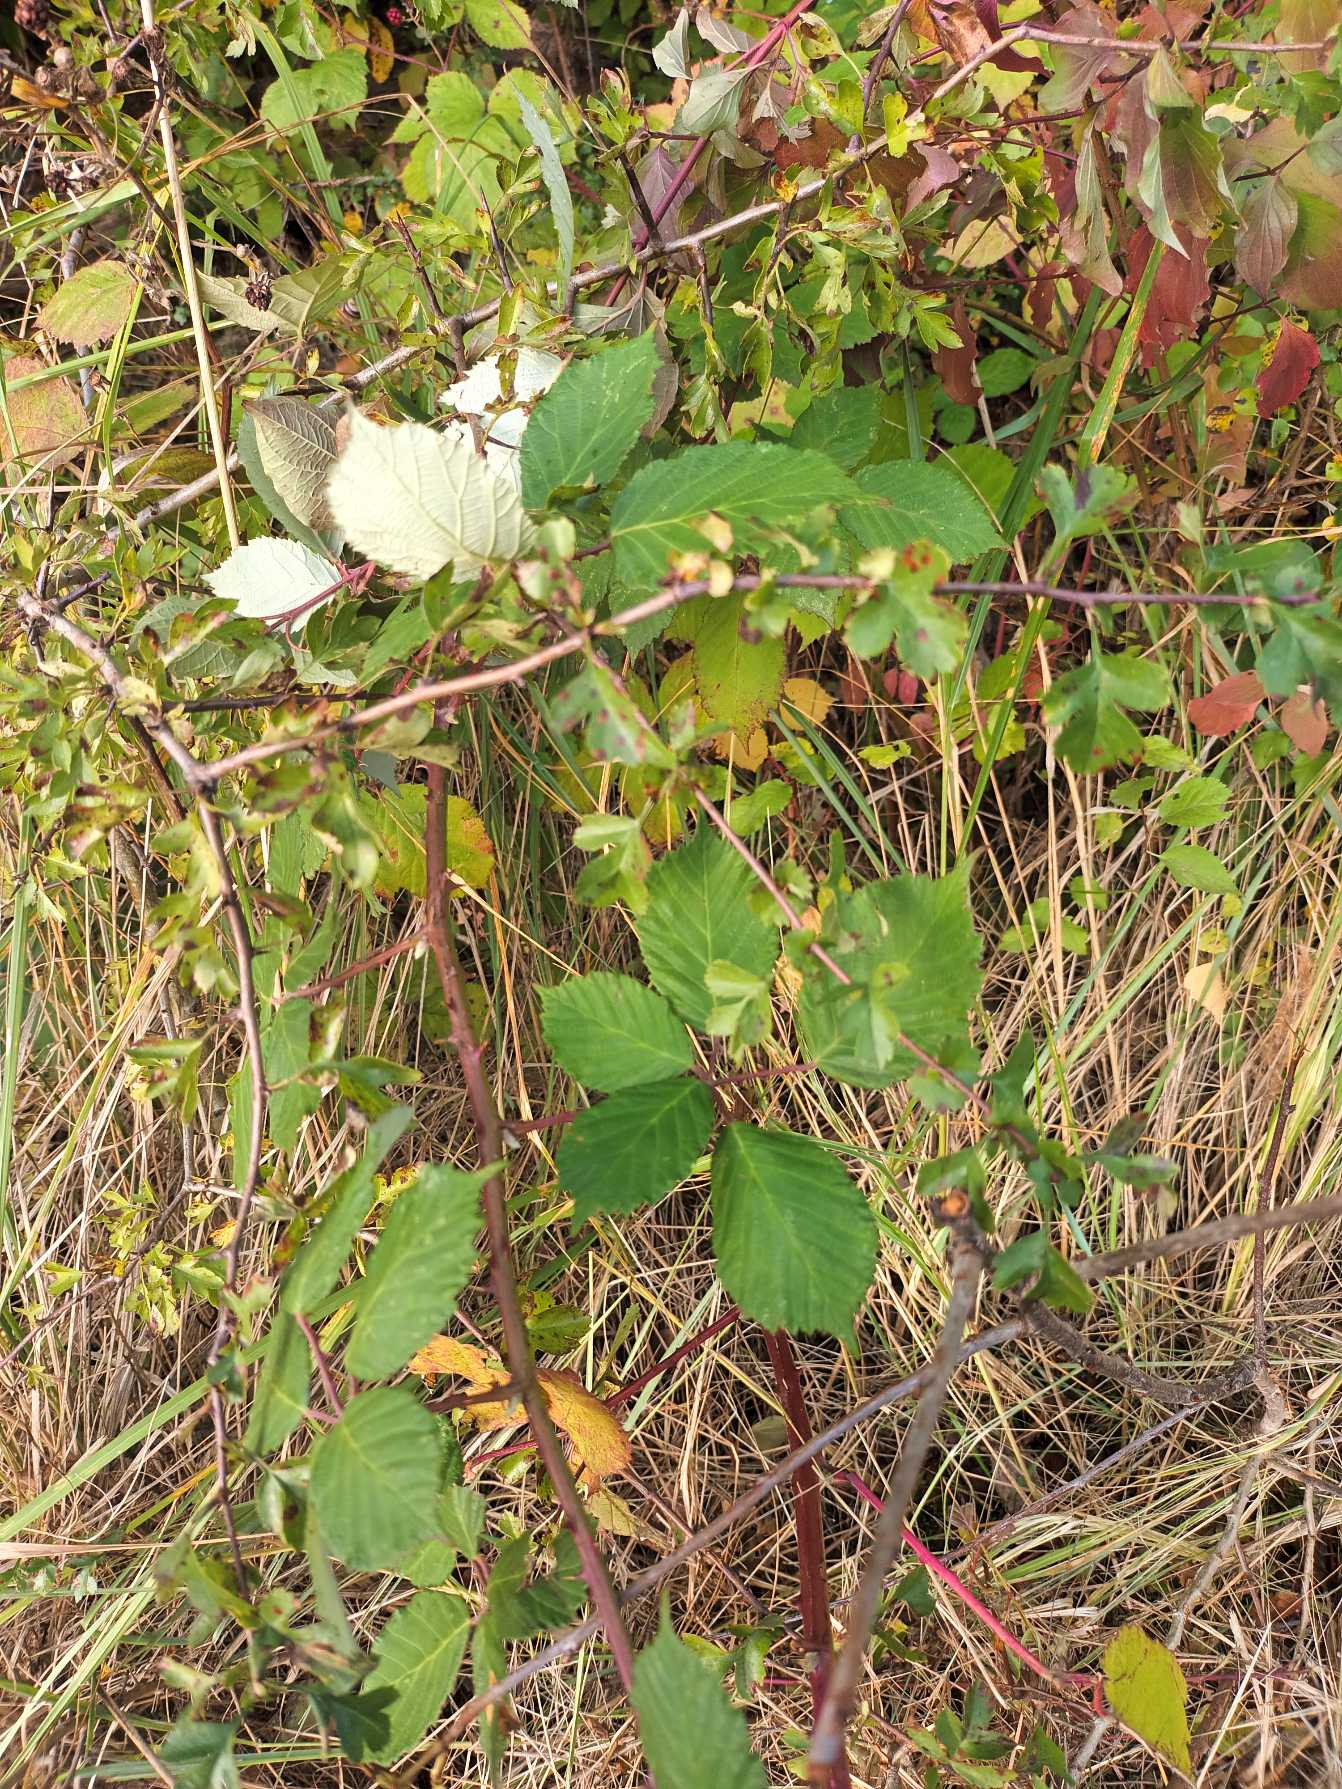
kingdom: Plantae
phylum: Tracheophyta
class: Magnoliopsida
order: Rosales
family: Rosaceae
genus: Rubus
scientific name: Rubus ulmifolius
